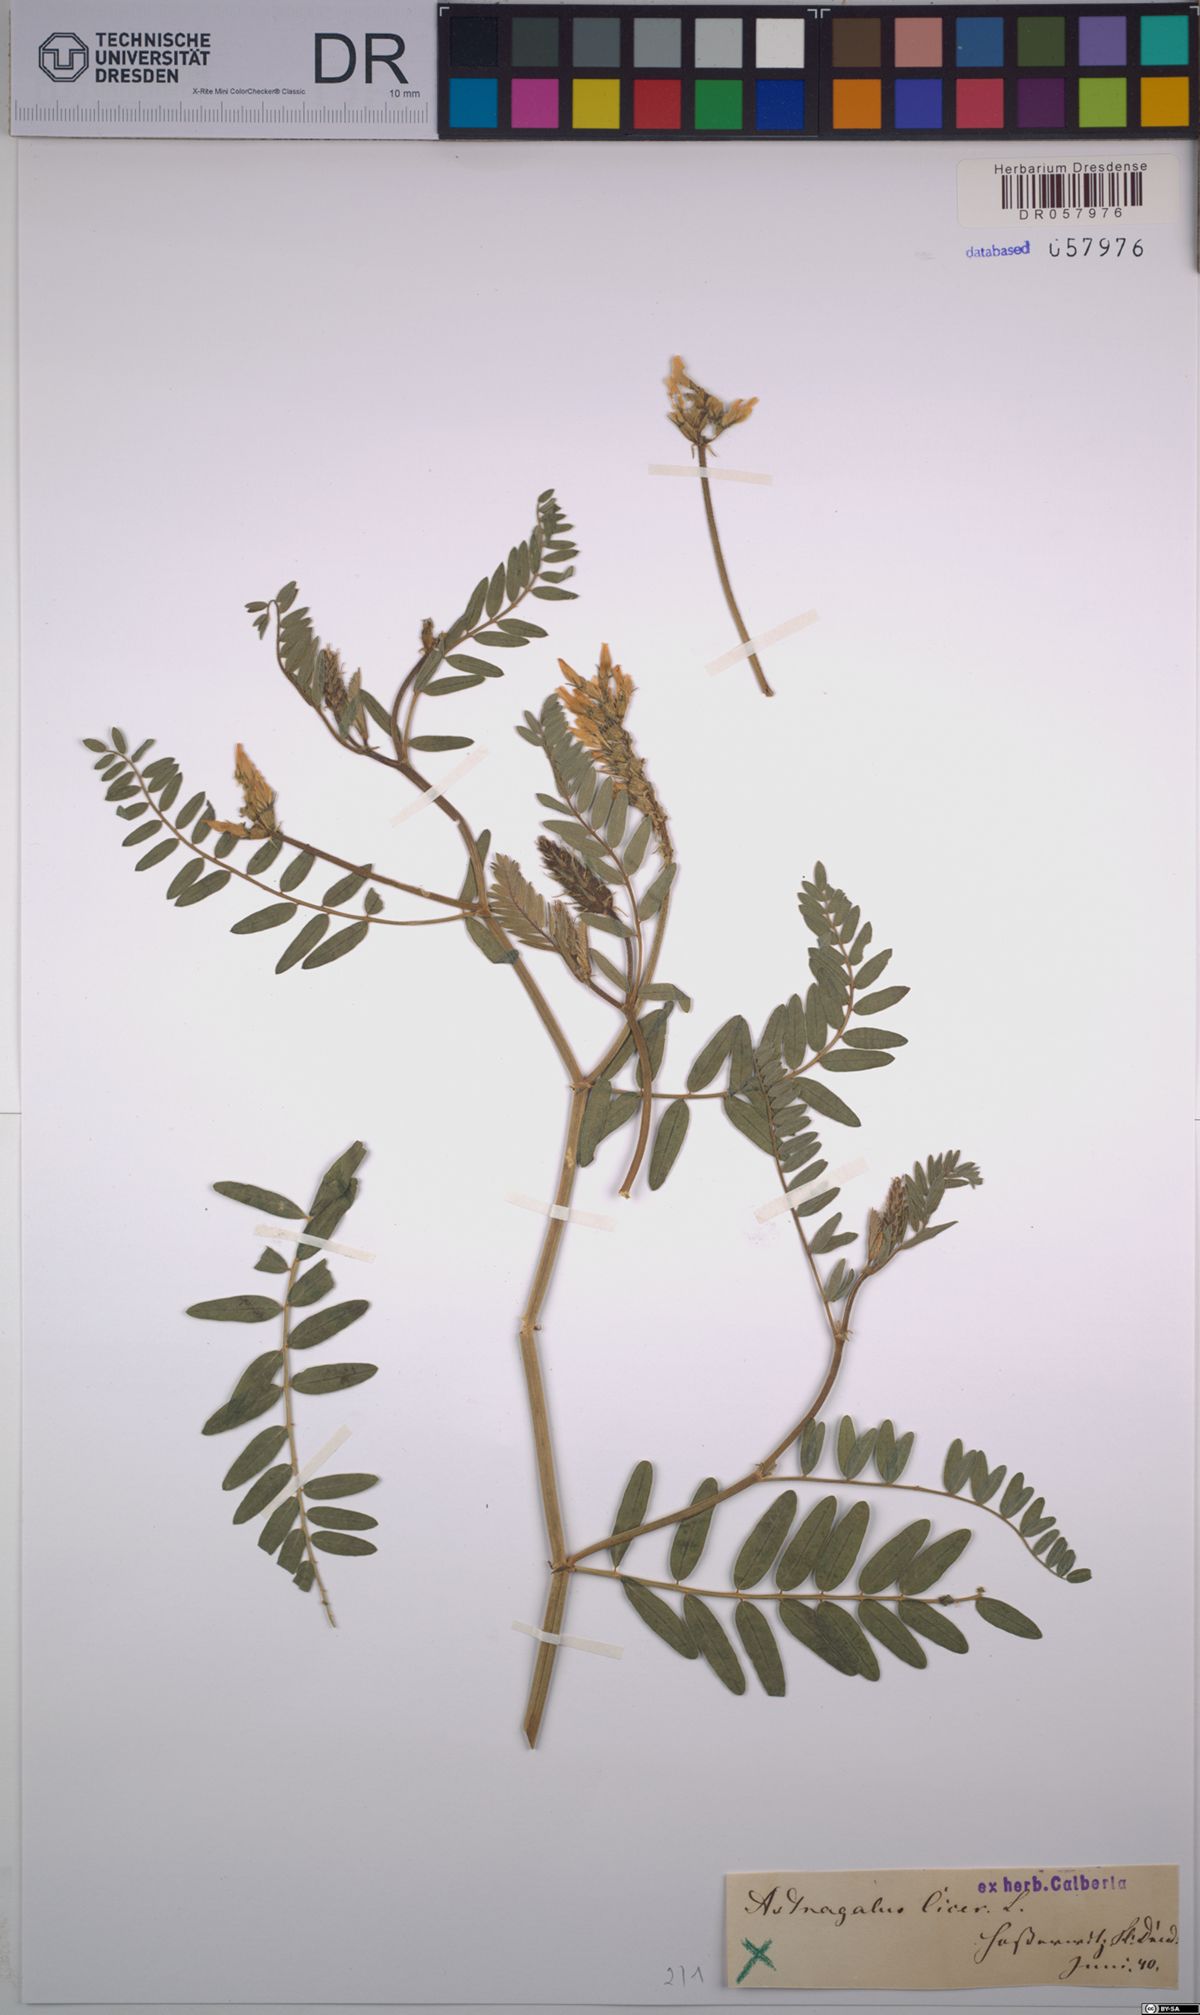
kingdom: Plantae
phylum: Tracheophyta
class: Magnoliopsida
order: Fabales
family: Fabaceae
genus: Astragalus
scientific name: Astragalus cicer
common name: Chick-pea milk-vetch
